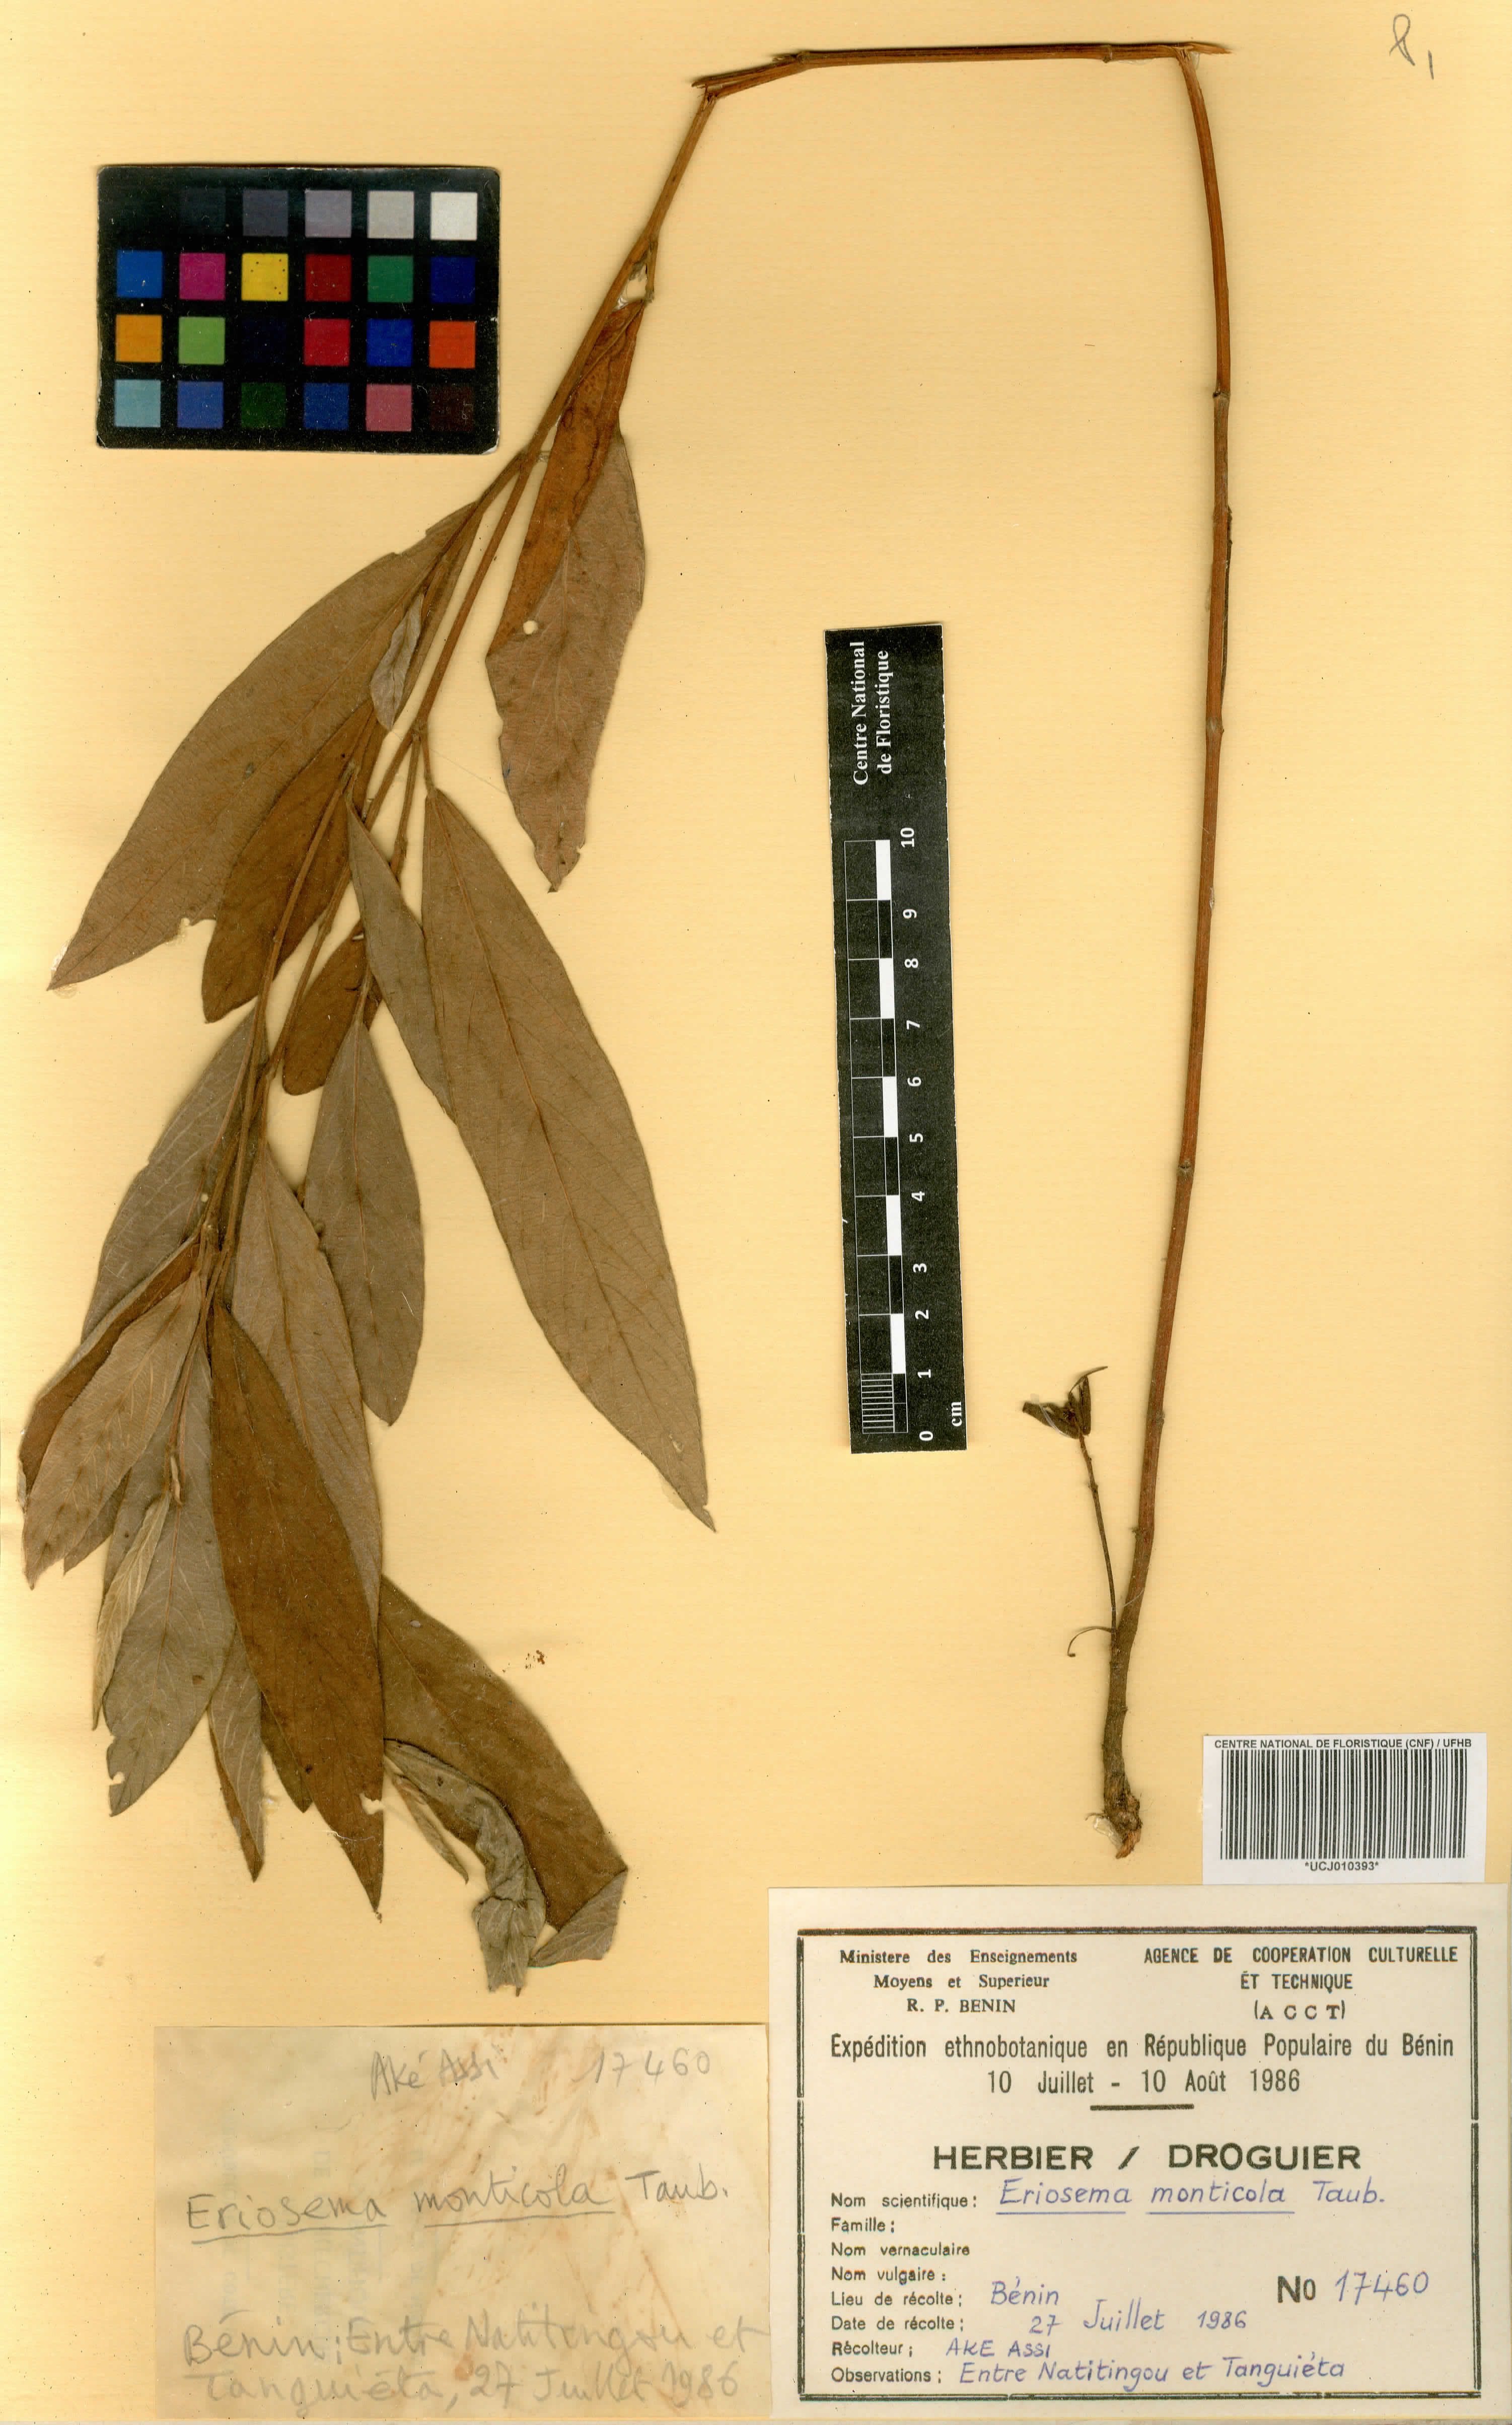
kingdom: Plantae
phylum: Tracheophyta
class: Magnoliopsida
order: Fabales
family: Fabaceae
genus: Eriosema
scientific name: Eriosema monticola
